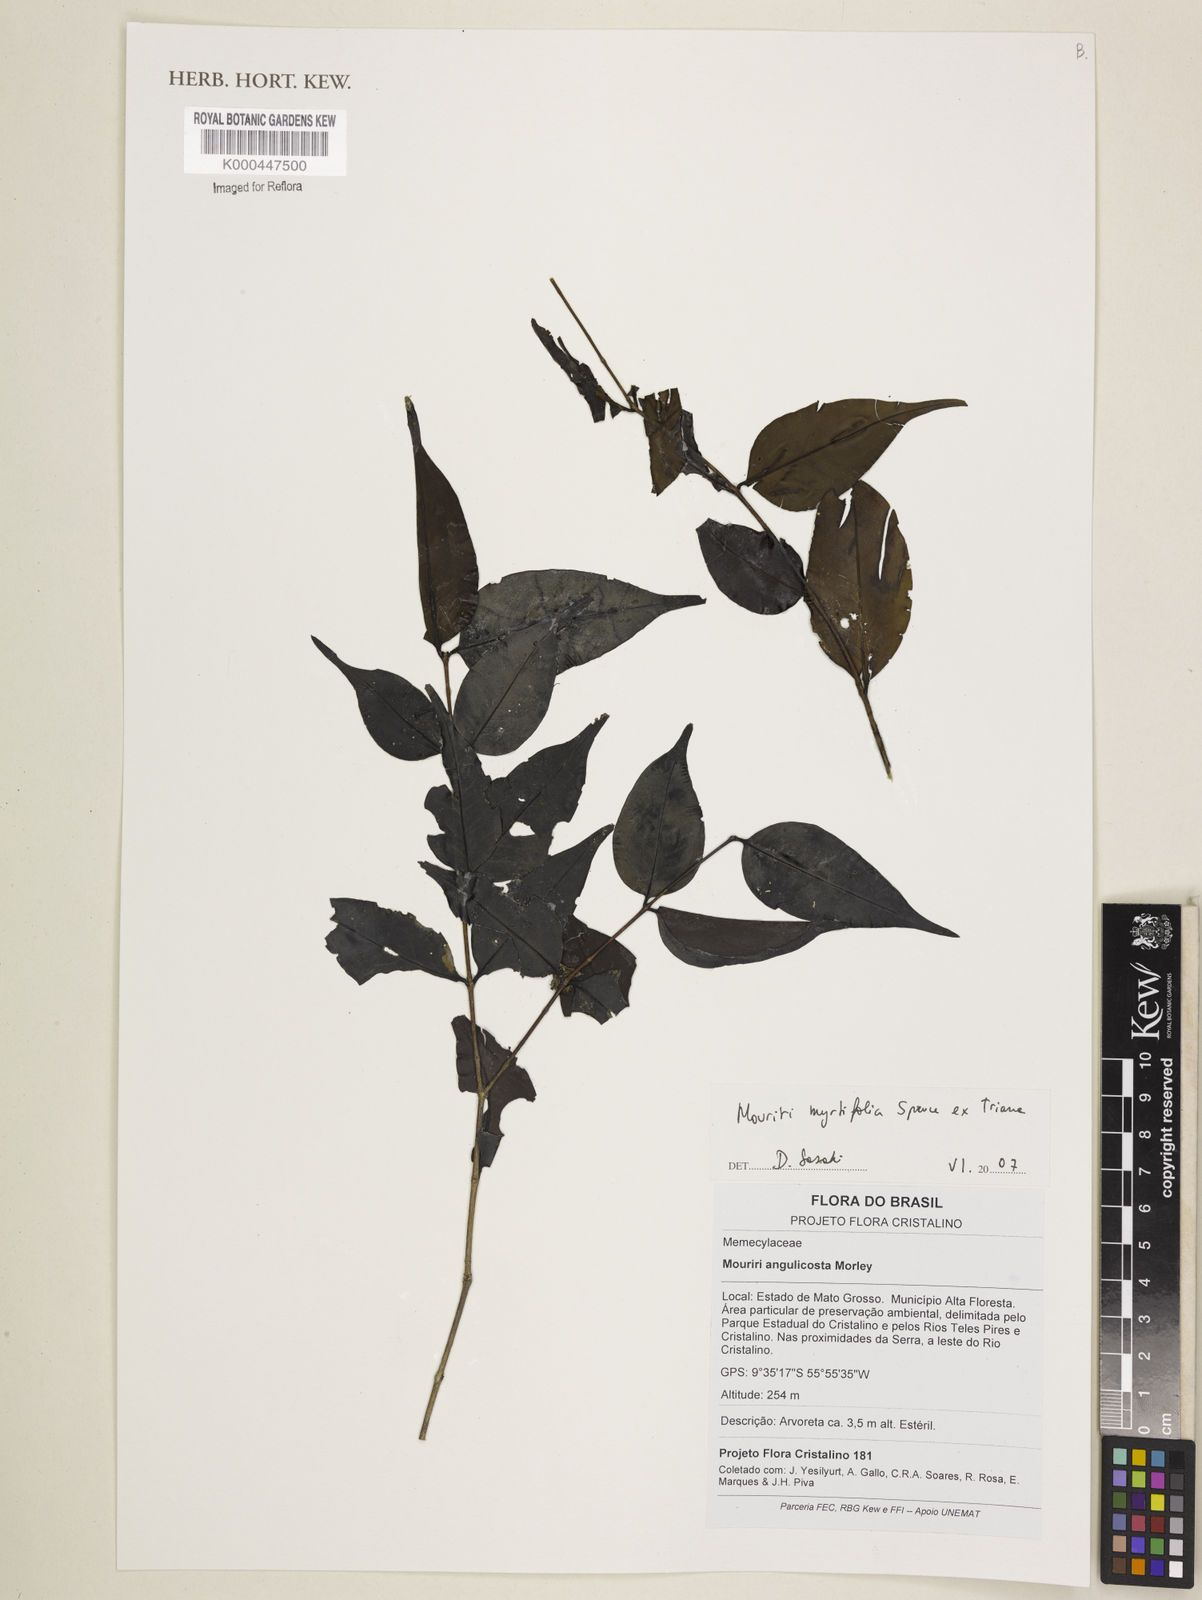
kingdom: Plantae
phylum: Tracheophyta
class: Magnoliopsida
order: Myrtales
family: Melastomataceae
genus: Mouriri
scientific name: Mouriri myrtifolia
